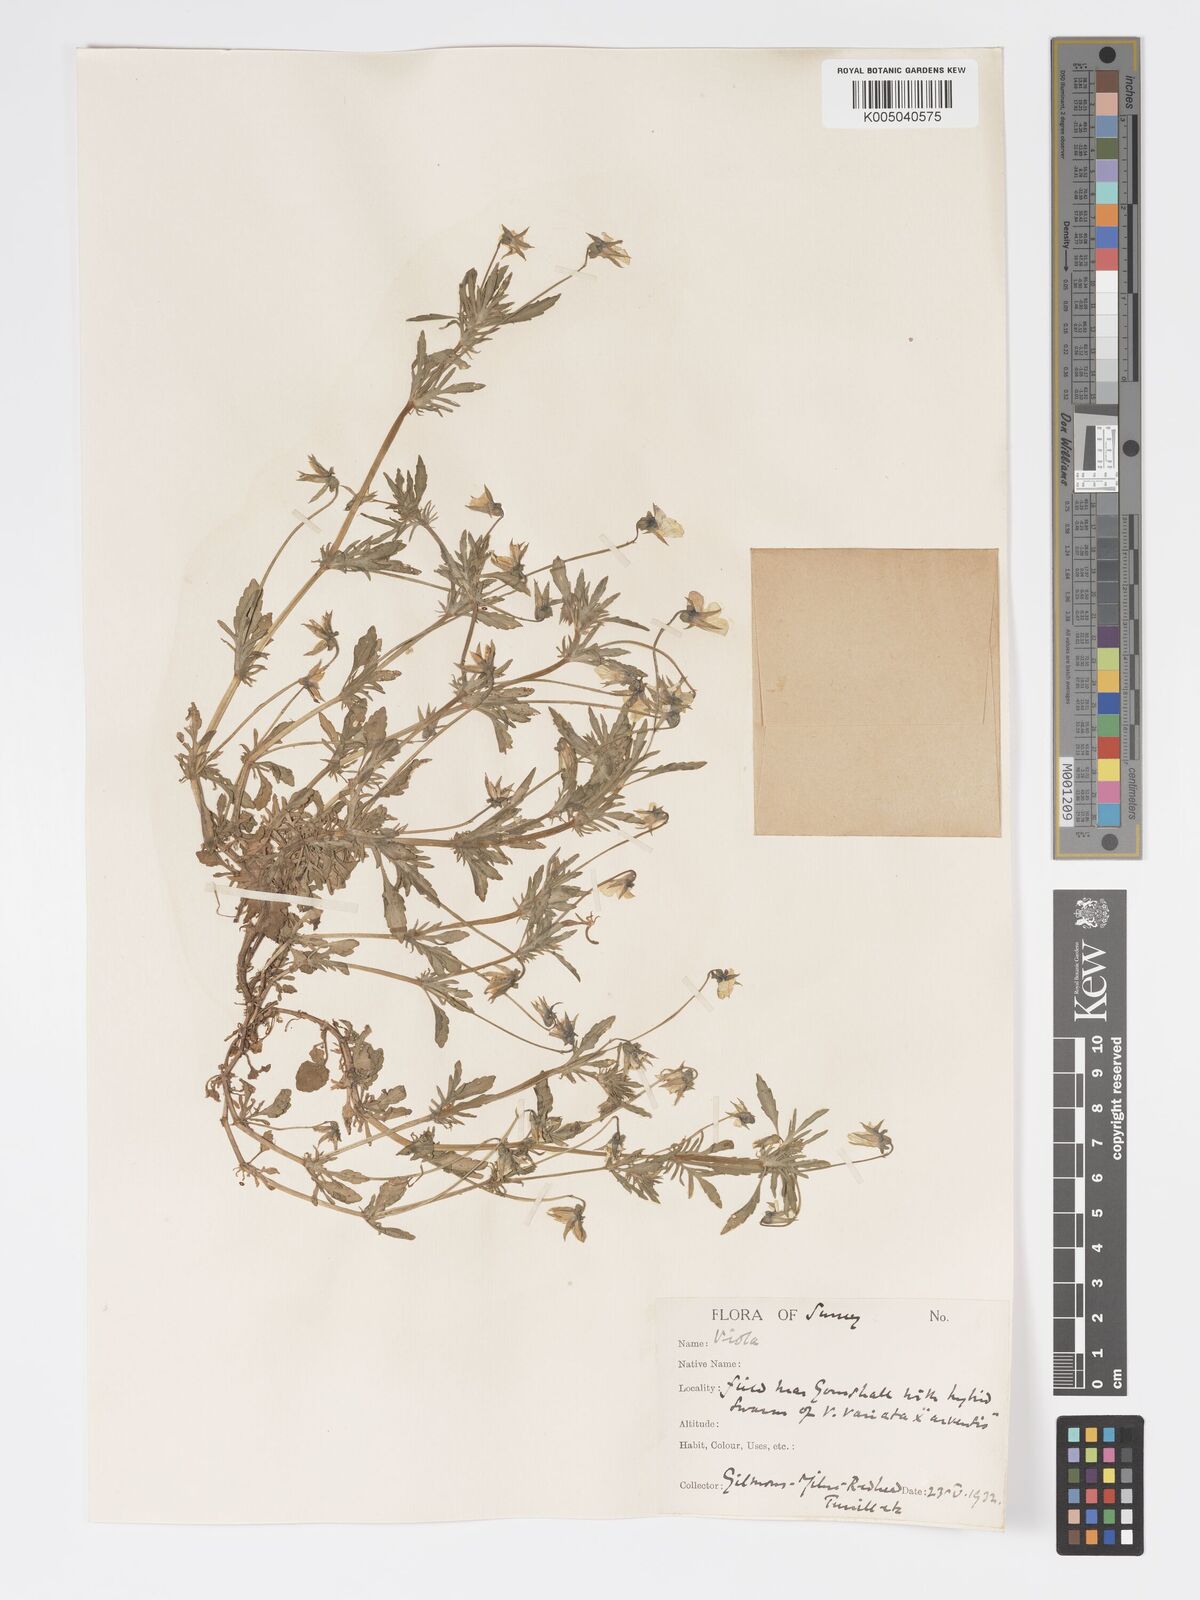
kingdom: Plantae
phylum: Tracheophyta
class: Magnoliopsida
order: Malpighiales
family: Violaceae
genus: Viola
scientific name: Viola
